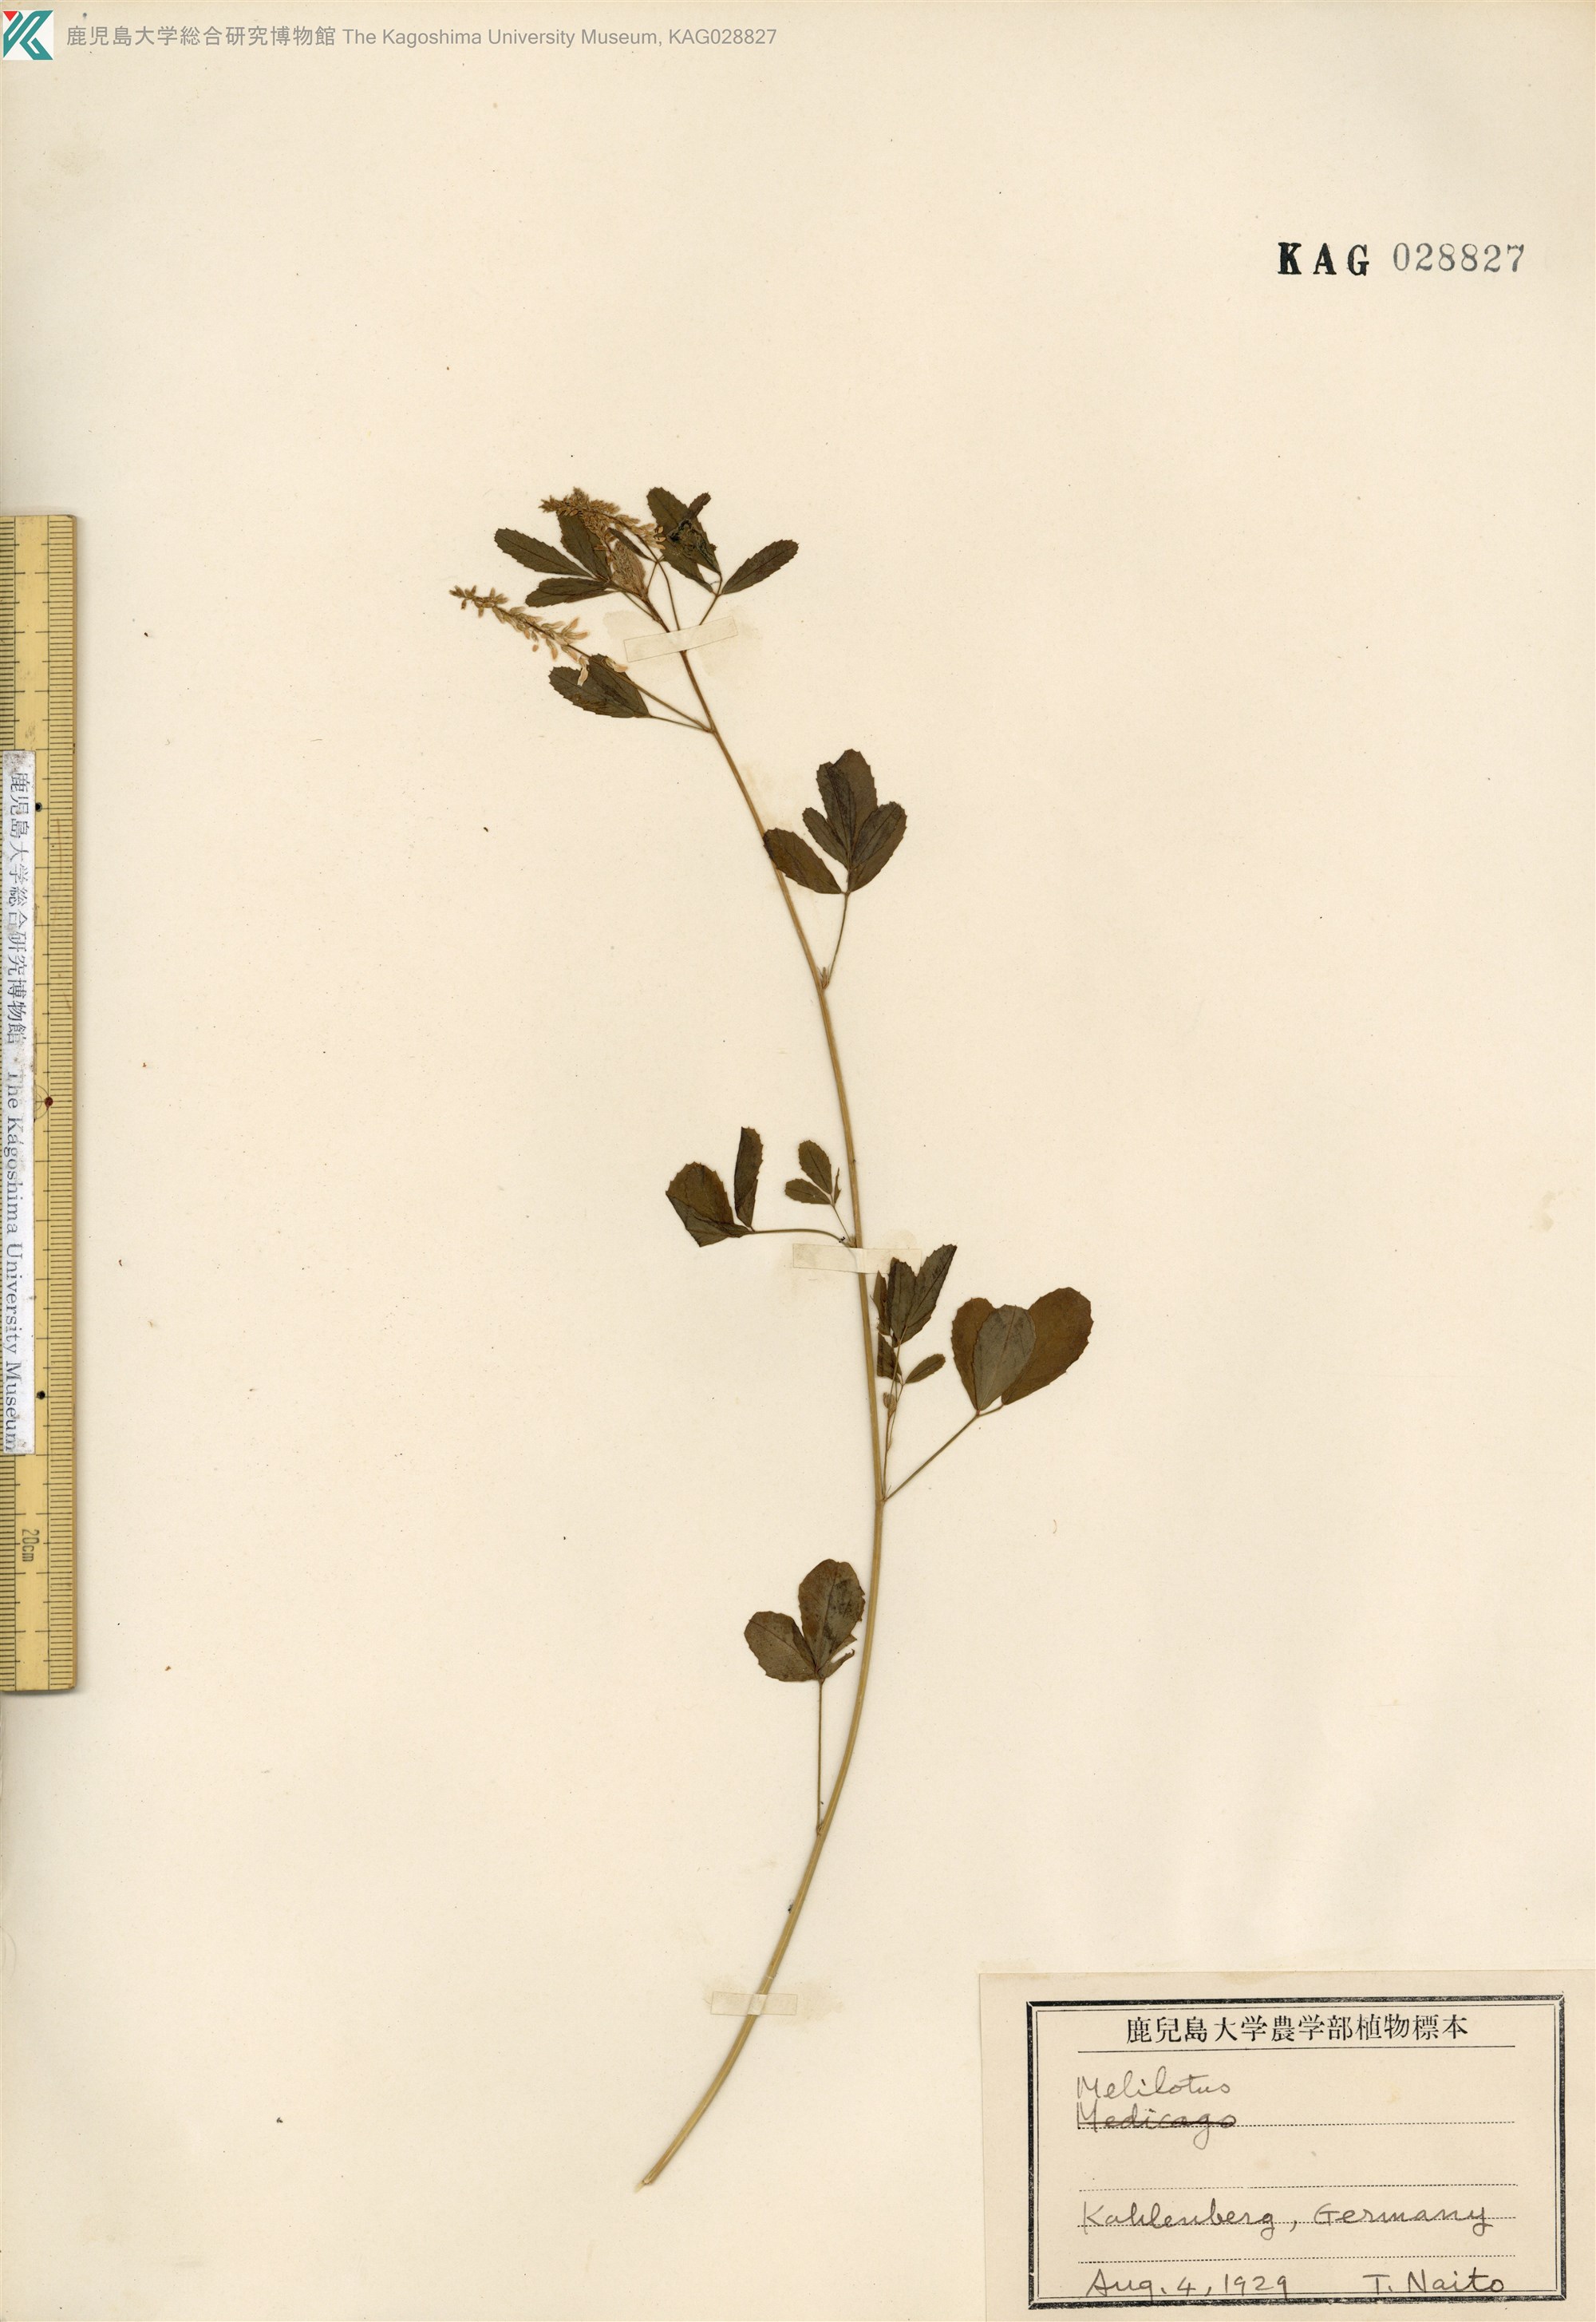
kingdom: Plantae
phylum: Tracheophyta
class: Magnoliopsida
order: Fabales
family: Fabaceae
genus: Melilotus
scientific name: Melilotus albus
